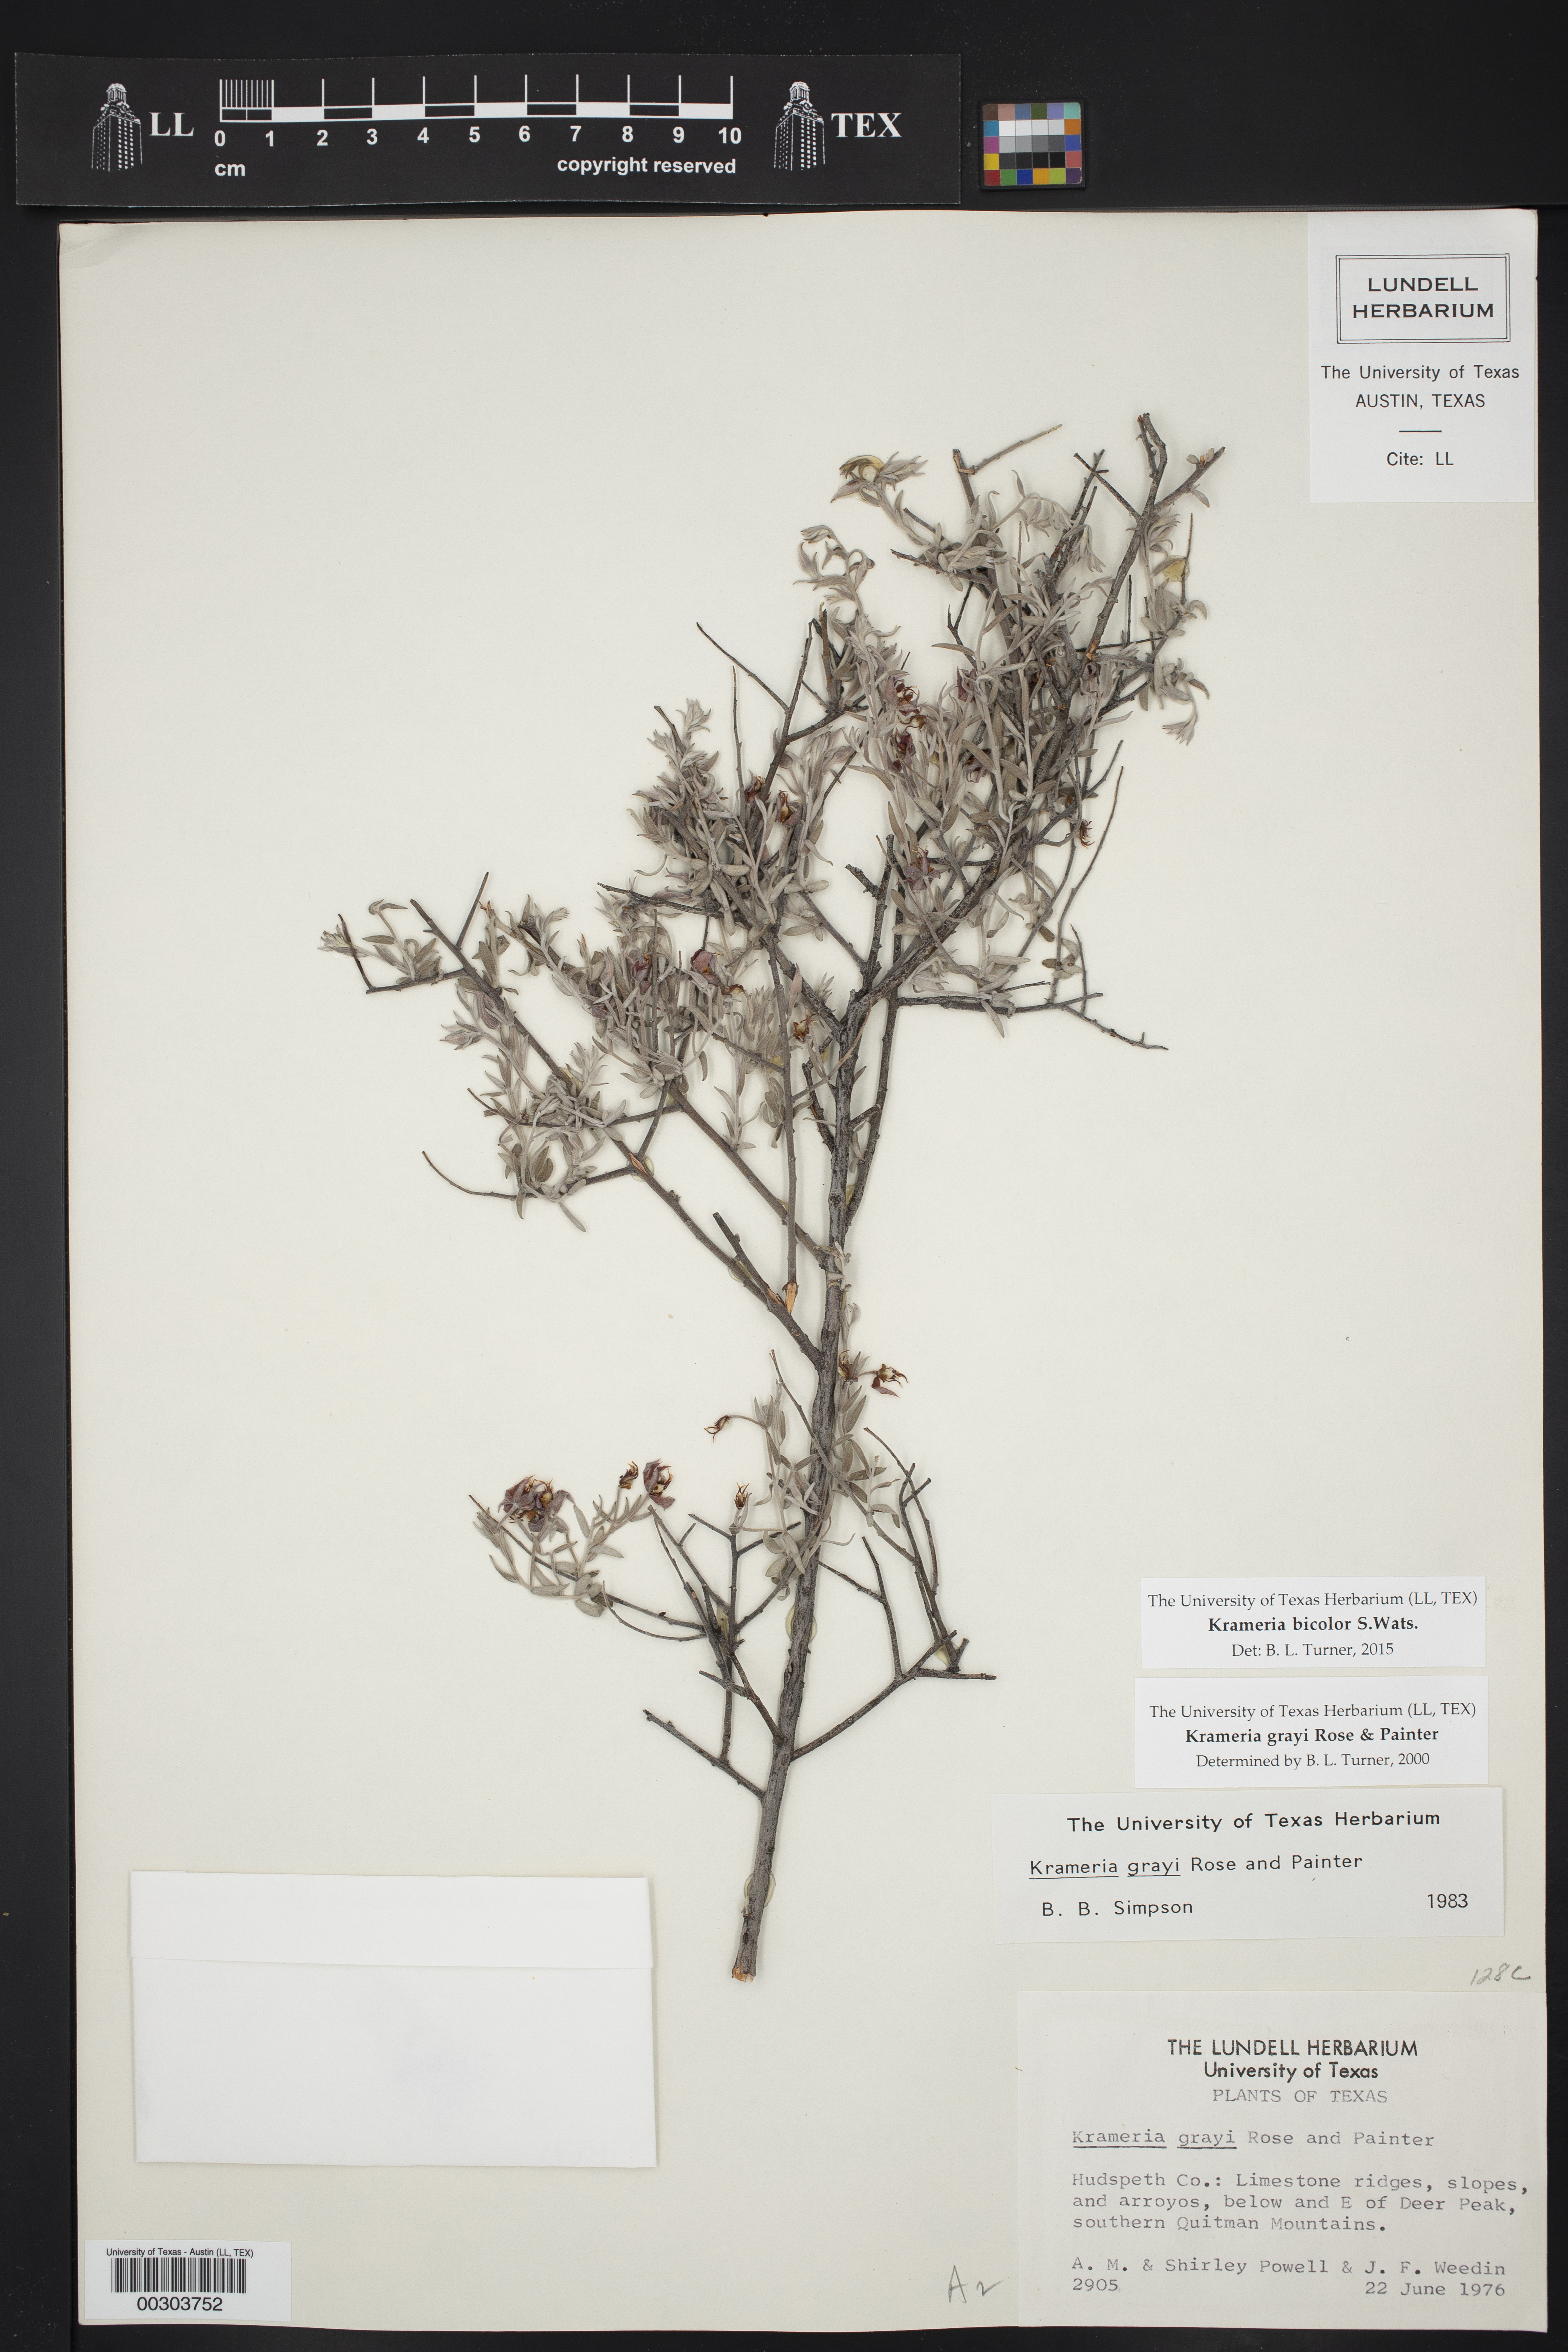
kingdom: Plantae
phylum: Tracheophyta
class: Magnoliopsida
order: Zygophyllales
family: Krameriaceae
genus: Krameria
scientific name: Krameria bicolor
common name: White ratany
